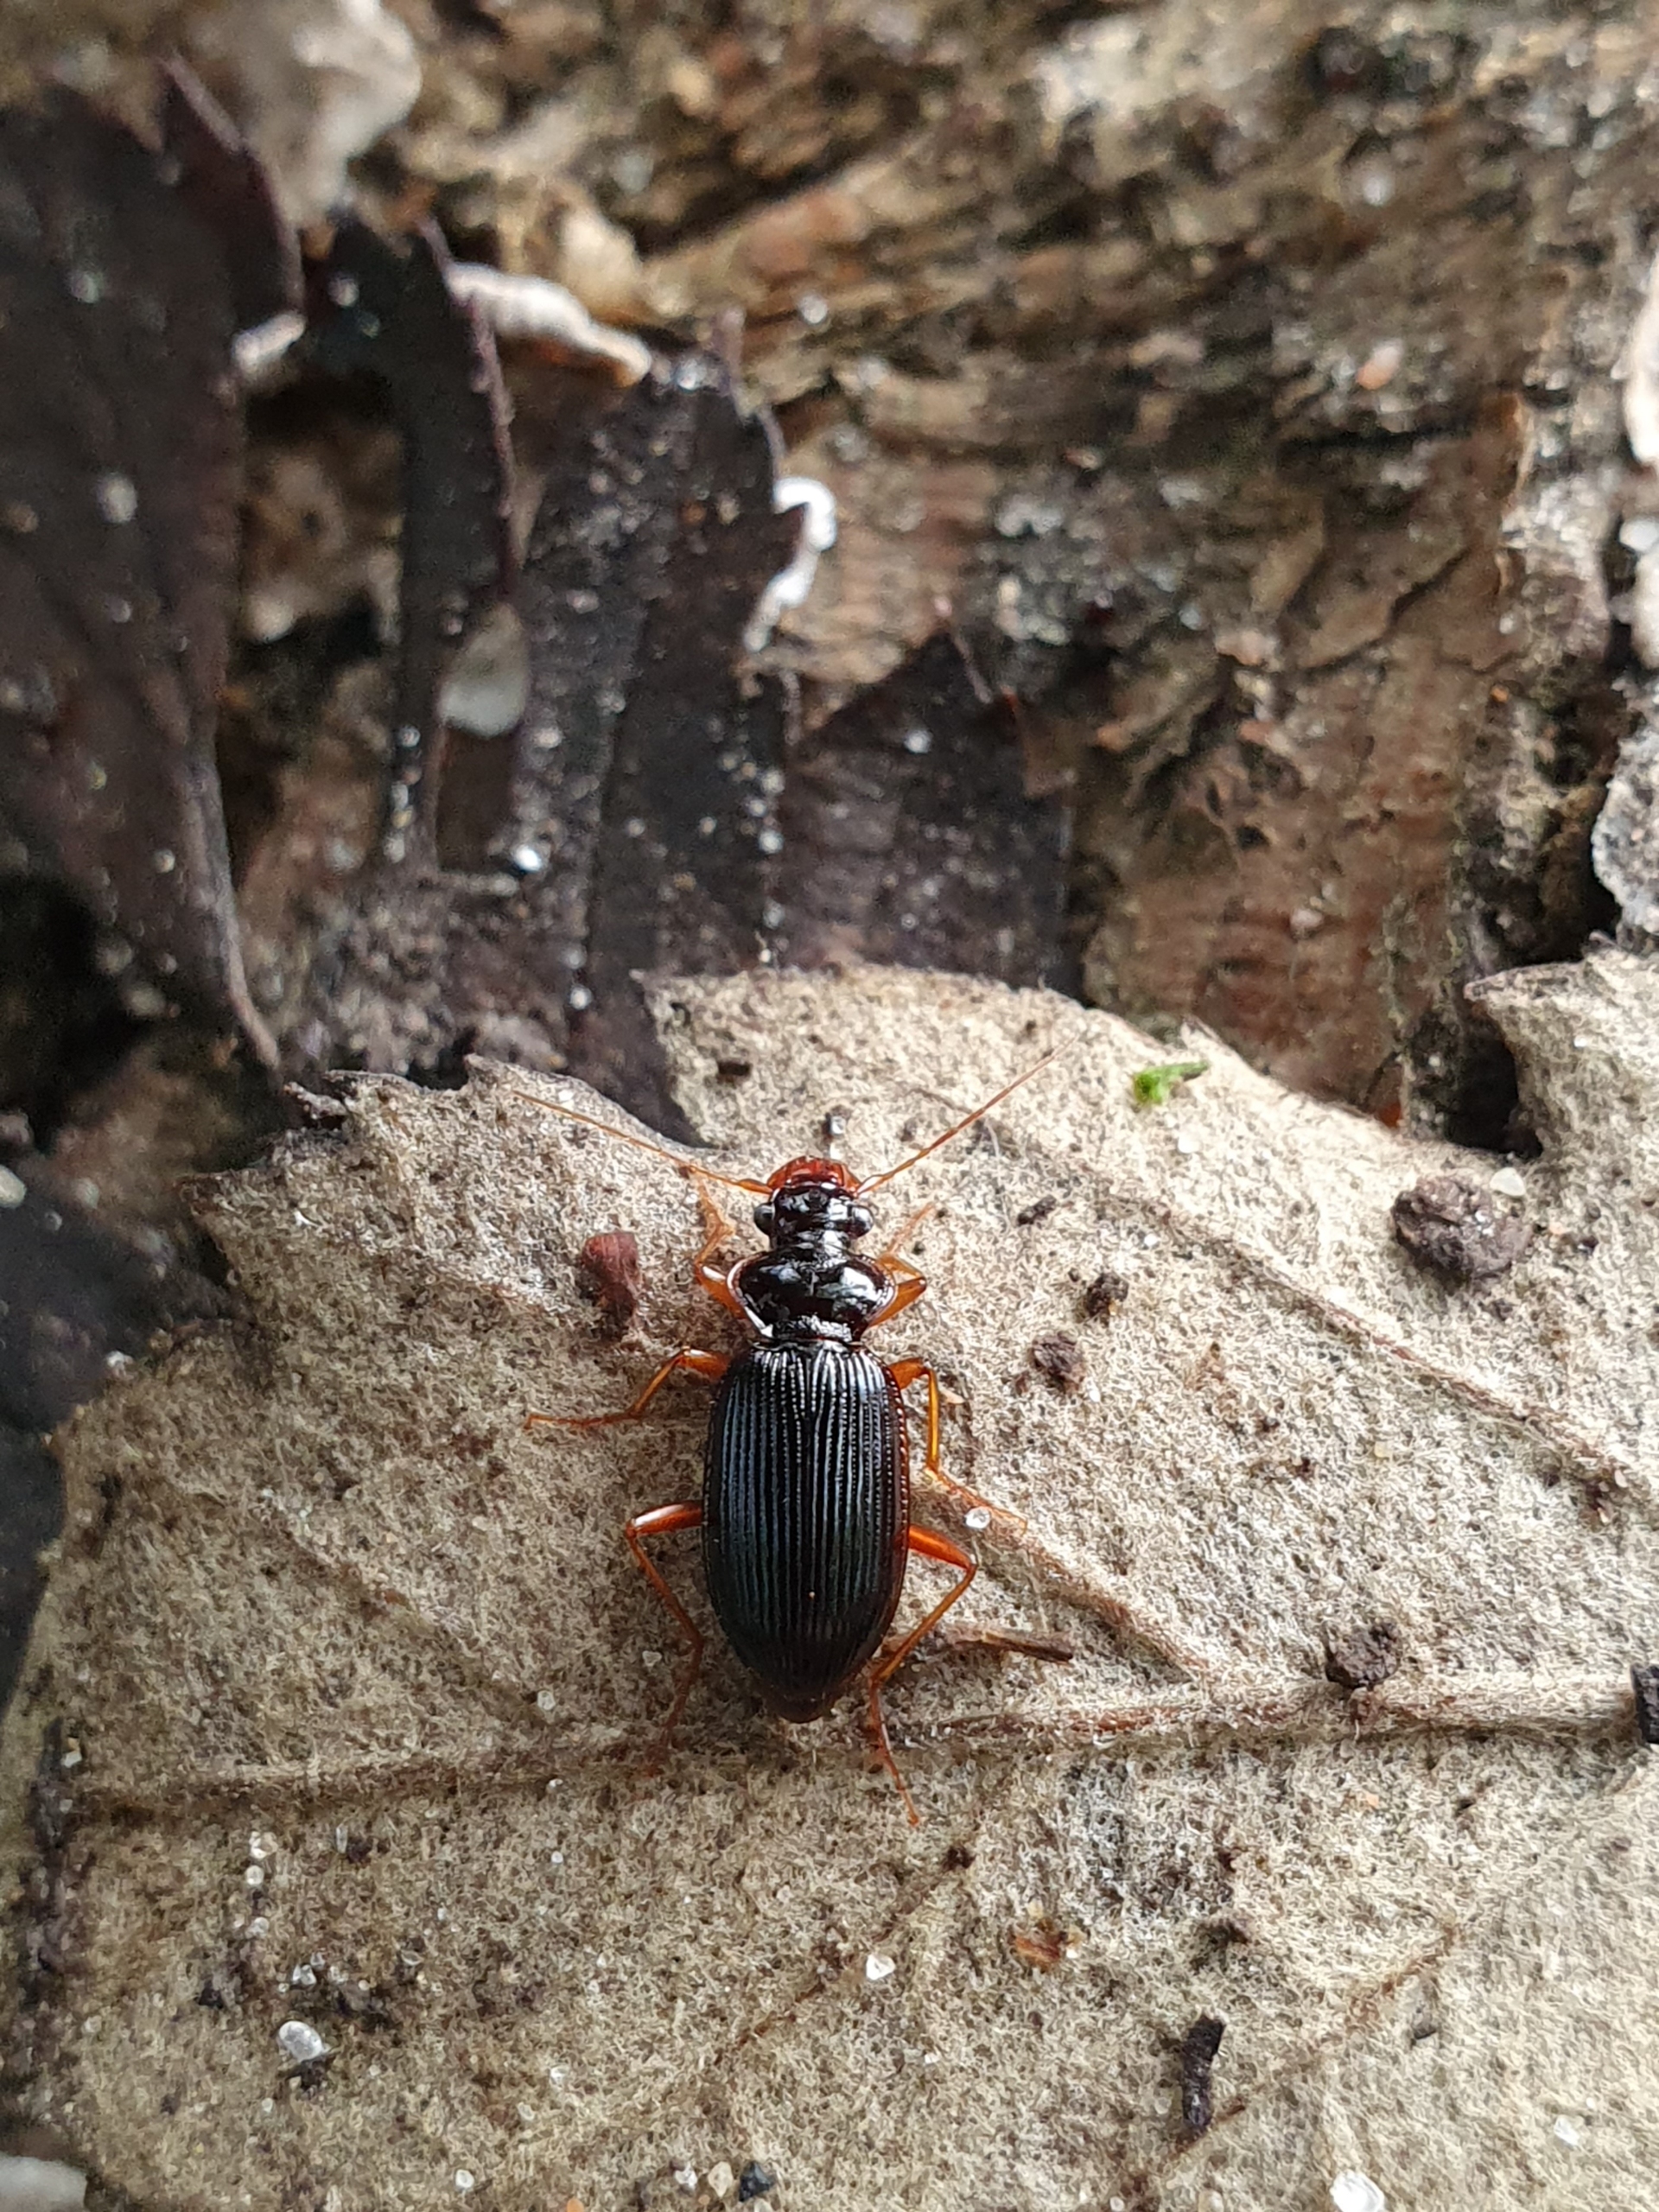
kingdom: Animalia
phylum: Arthropoda
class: Insecta
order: Coleoptera
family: Carabidae
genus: Leistus
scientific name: Leistus rufomarginatus
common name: Stor skægløber
